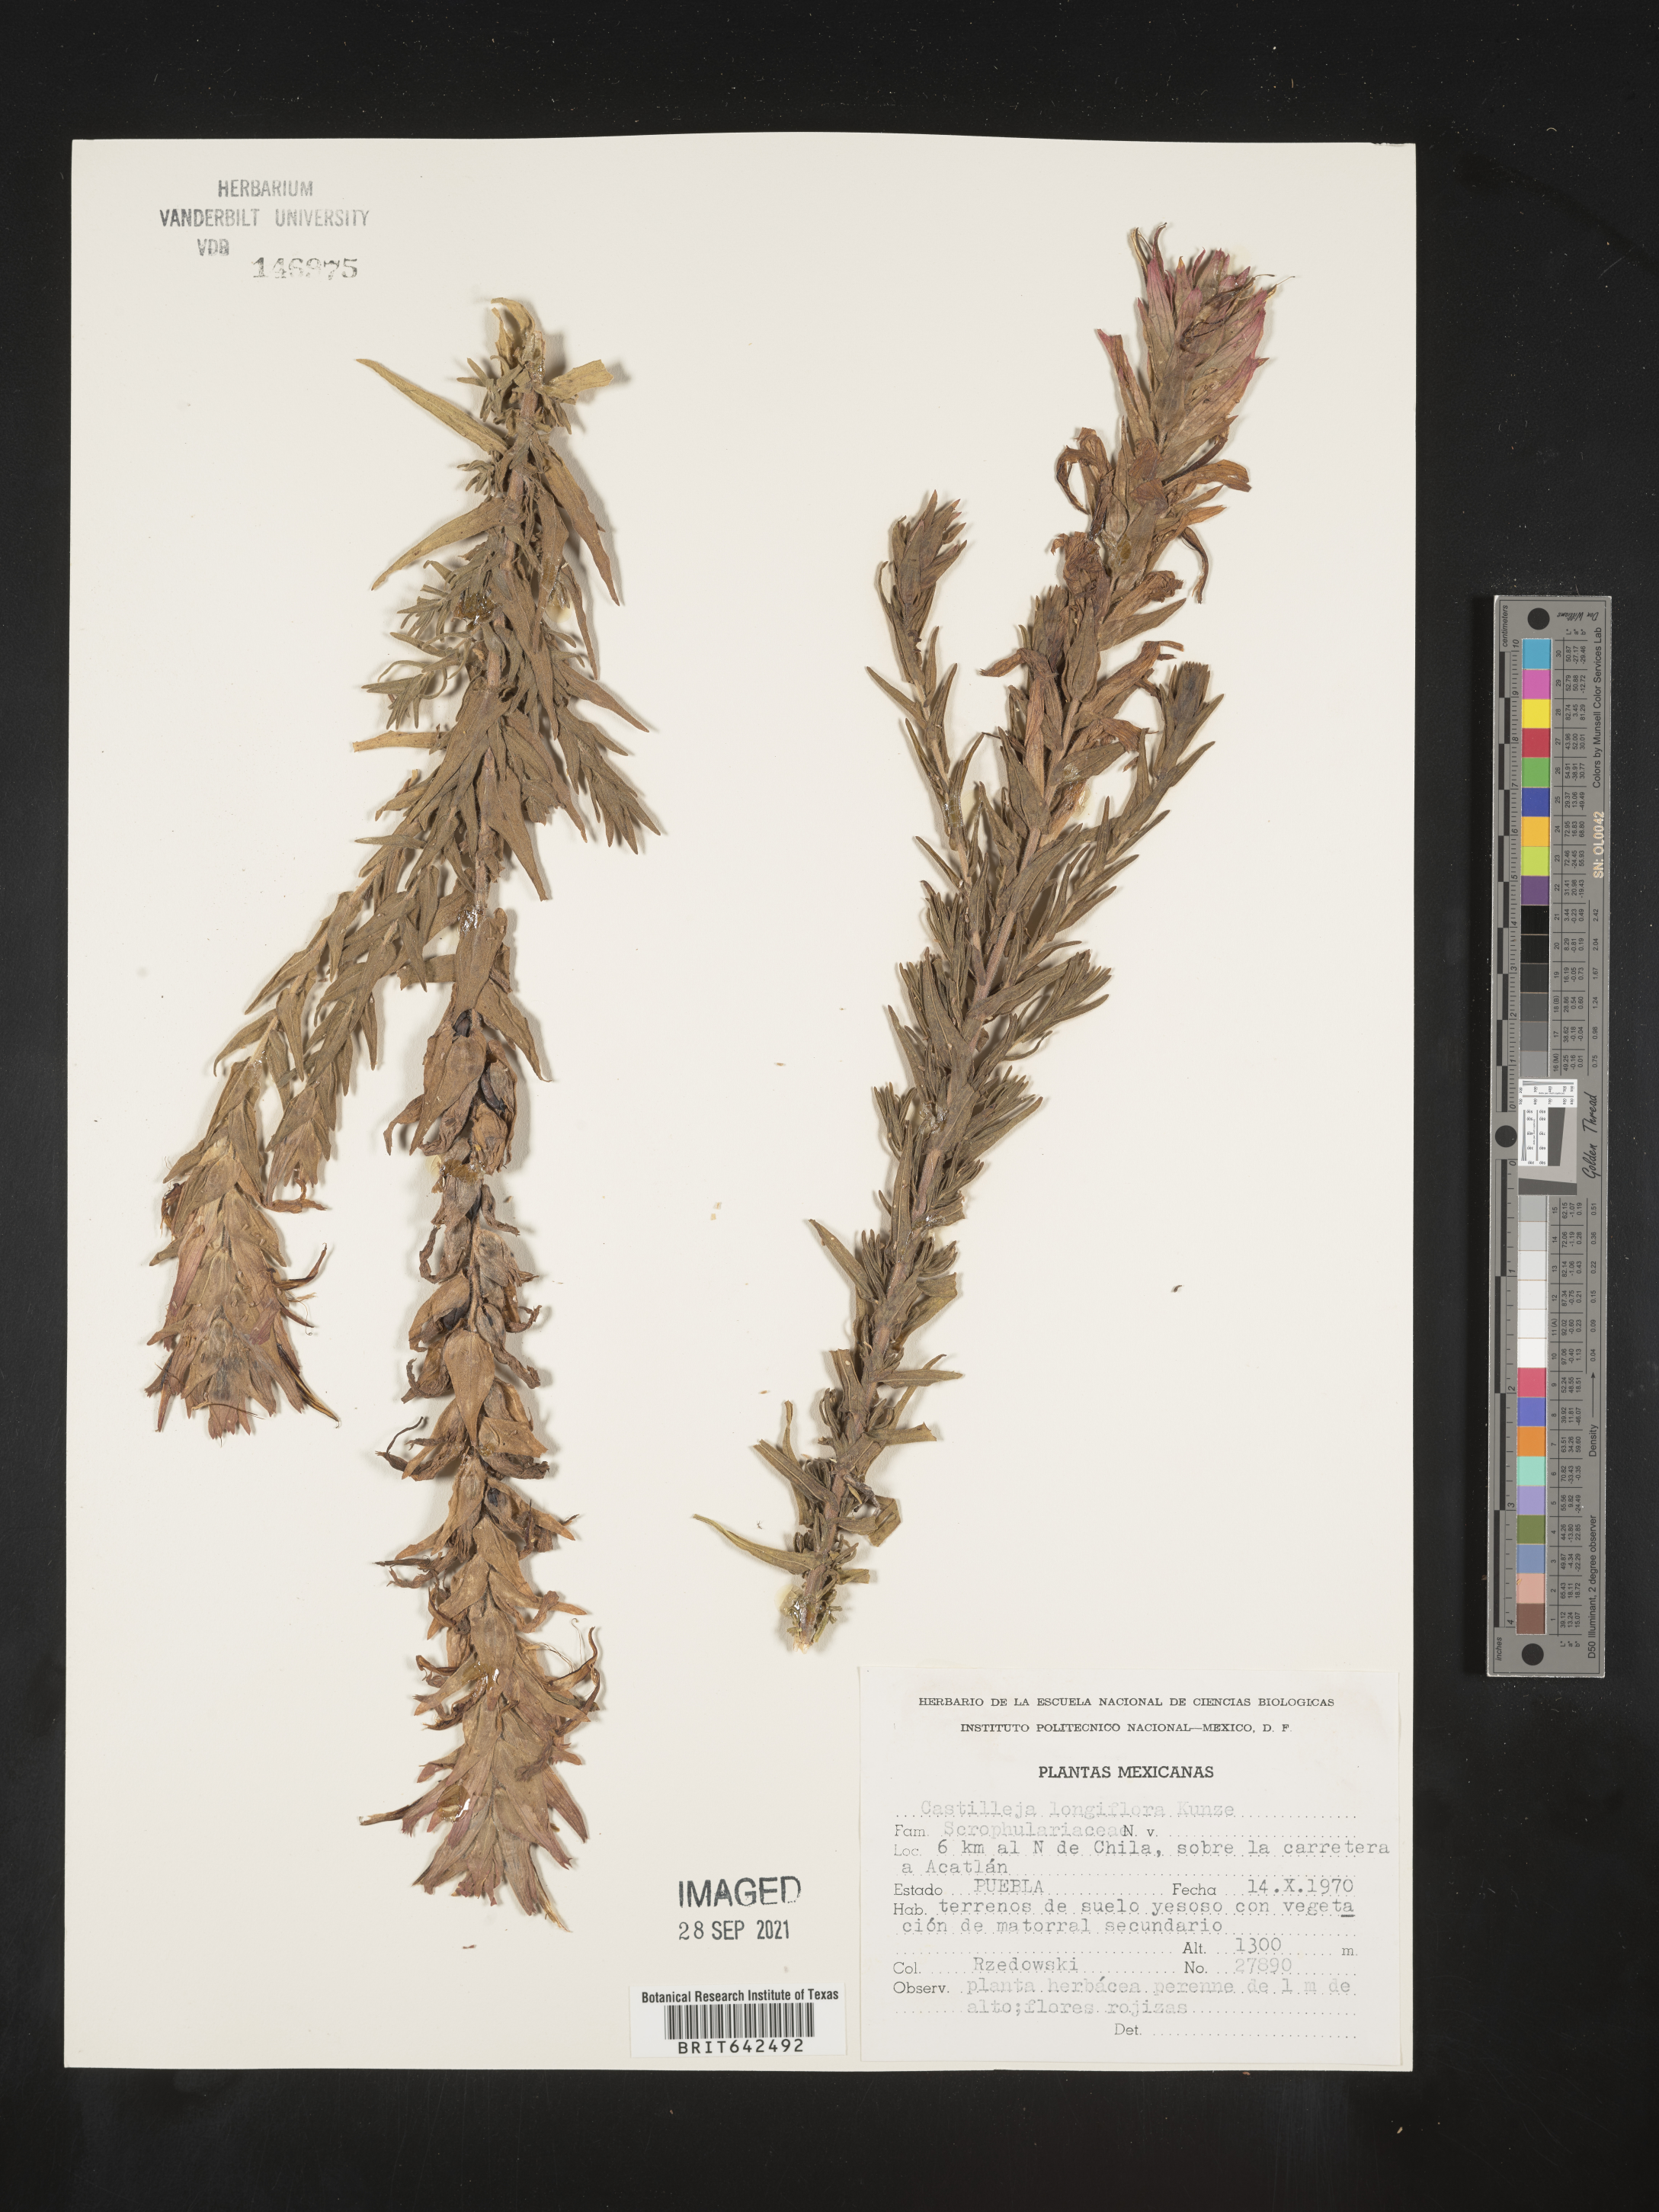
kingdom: Plantae
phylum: Tracheophyta
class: Magnoliopsida
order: Lamiales
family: Orobanchaceae
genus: Castilleja
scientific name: Castilleja
